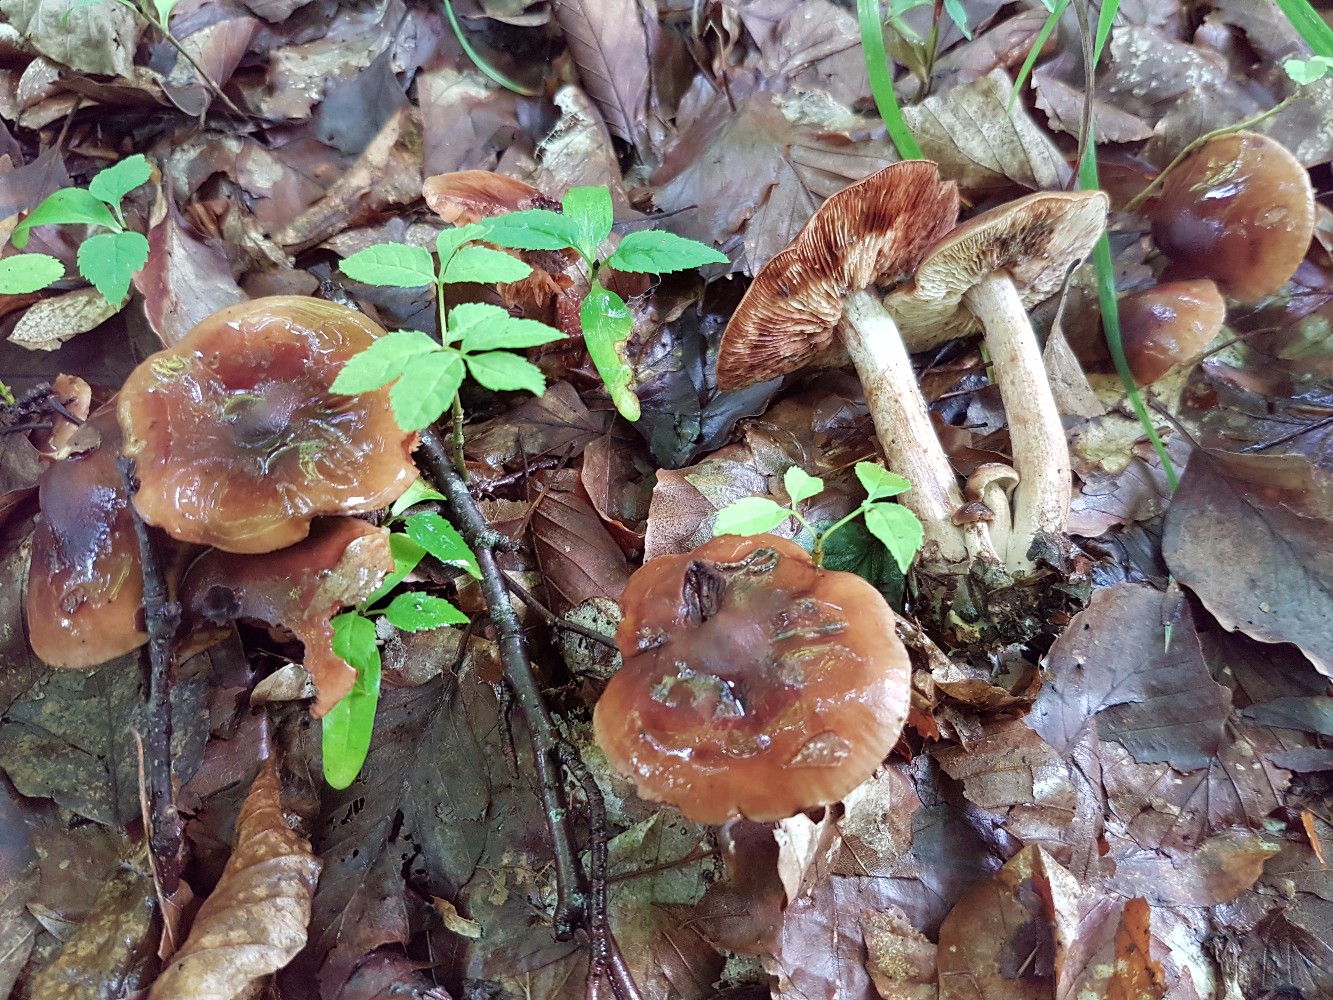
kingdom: Fungi
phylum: Basidiomycota
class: Agaricomycetes
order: Agaricales
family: Tricholomataceae
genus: Tricholoma
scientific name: Tricholoma ustale
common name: sveden ridderhat
